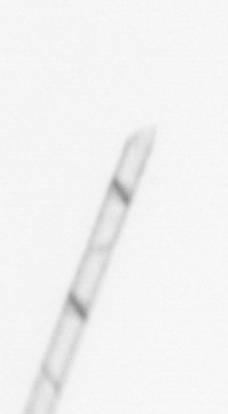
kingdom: Chromista
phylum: Ochrophyta
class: Bacillariophyceae
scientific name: Bacillariophyceae
